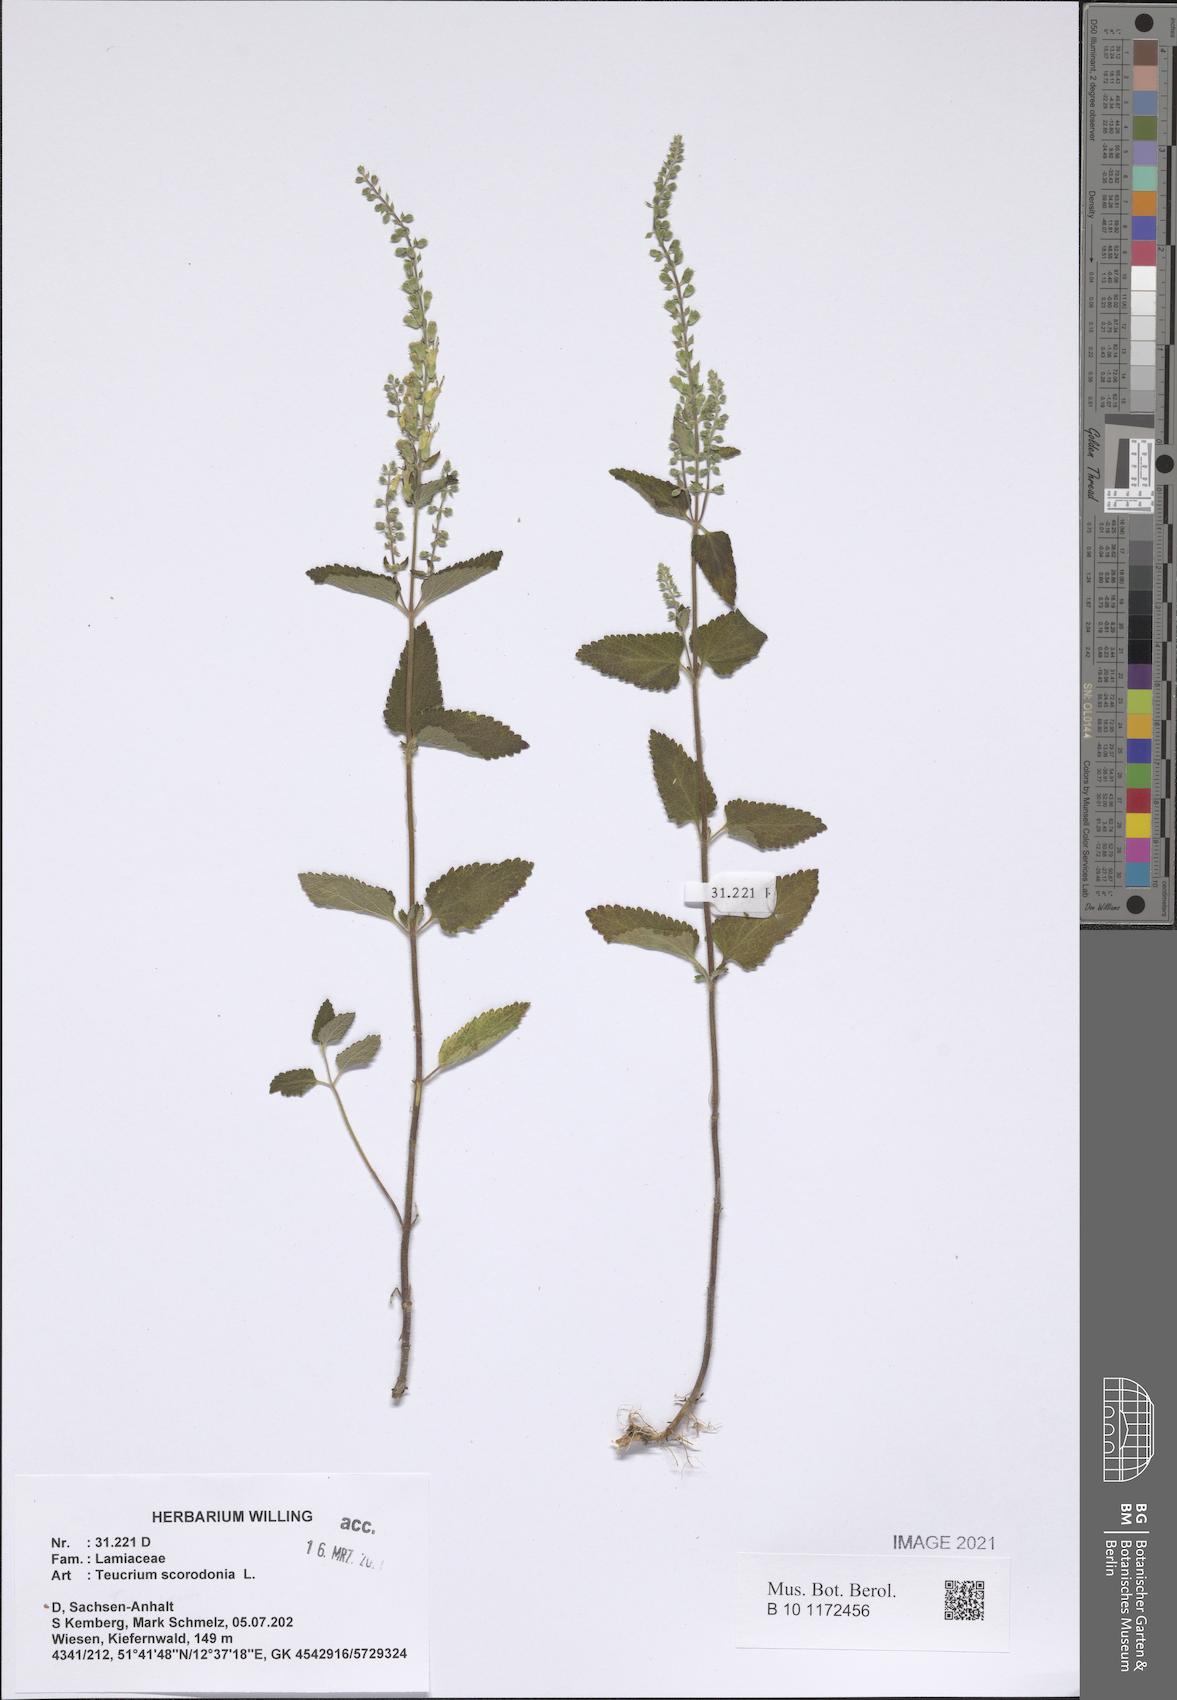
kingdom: Plantae
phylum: Tracheophyta
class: Magnoliopsida
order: Lamiales
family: Lamiaceae
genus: Teucrium
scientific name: Teucrium scorodonia
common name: Woodland germander
